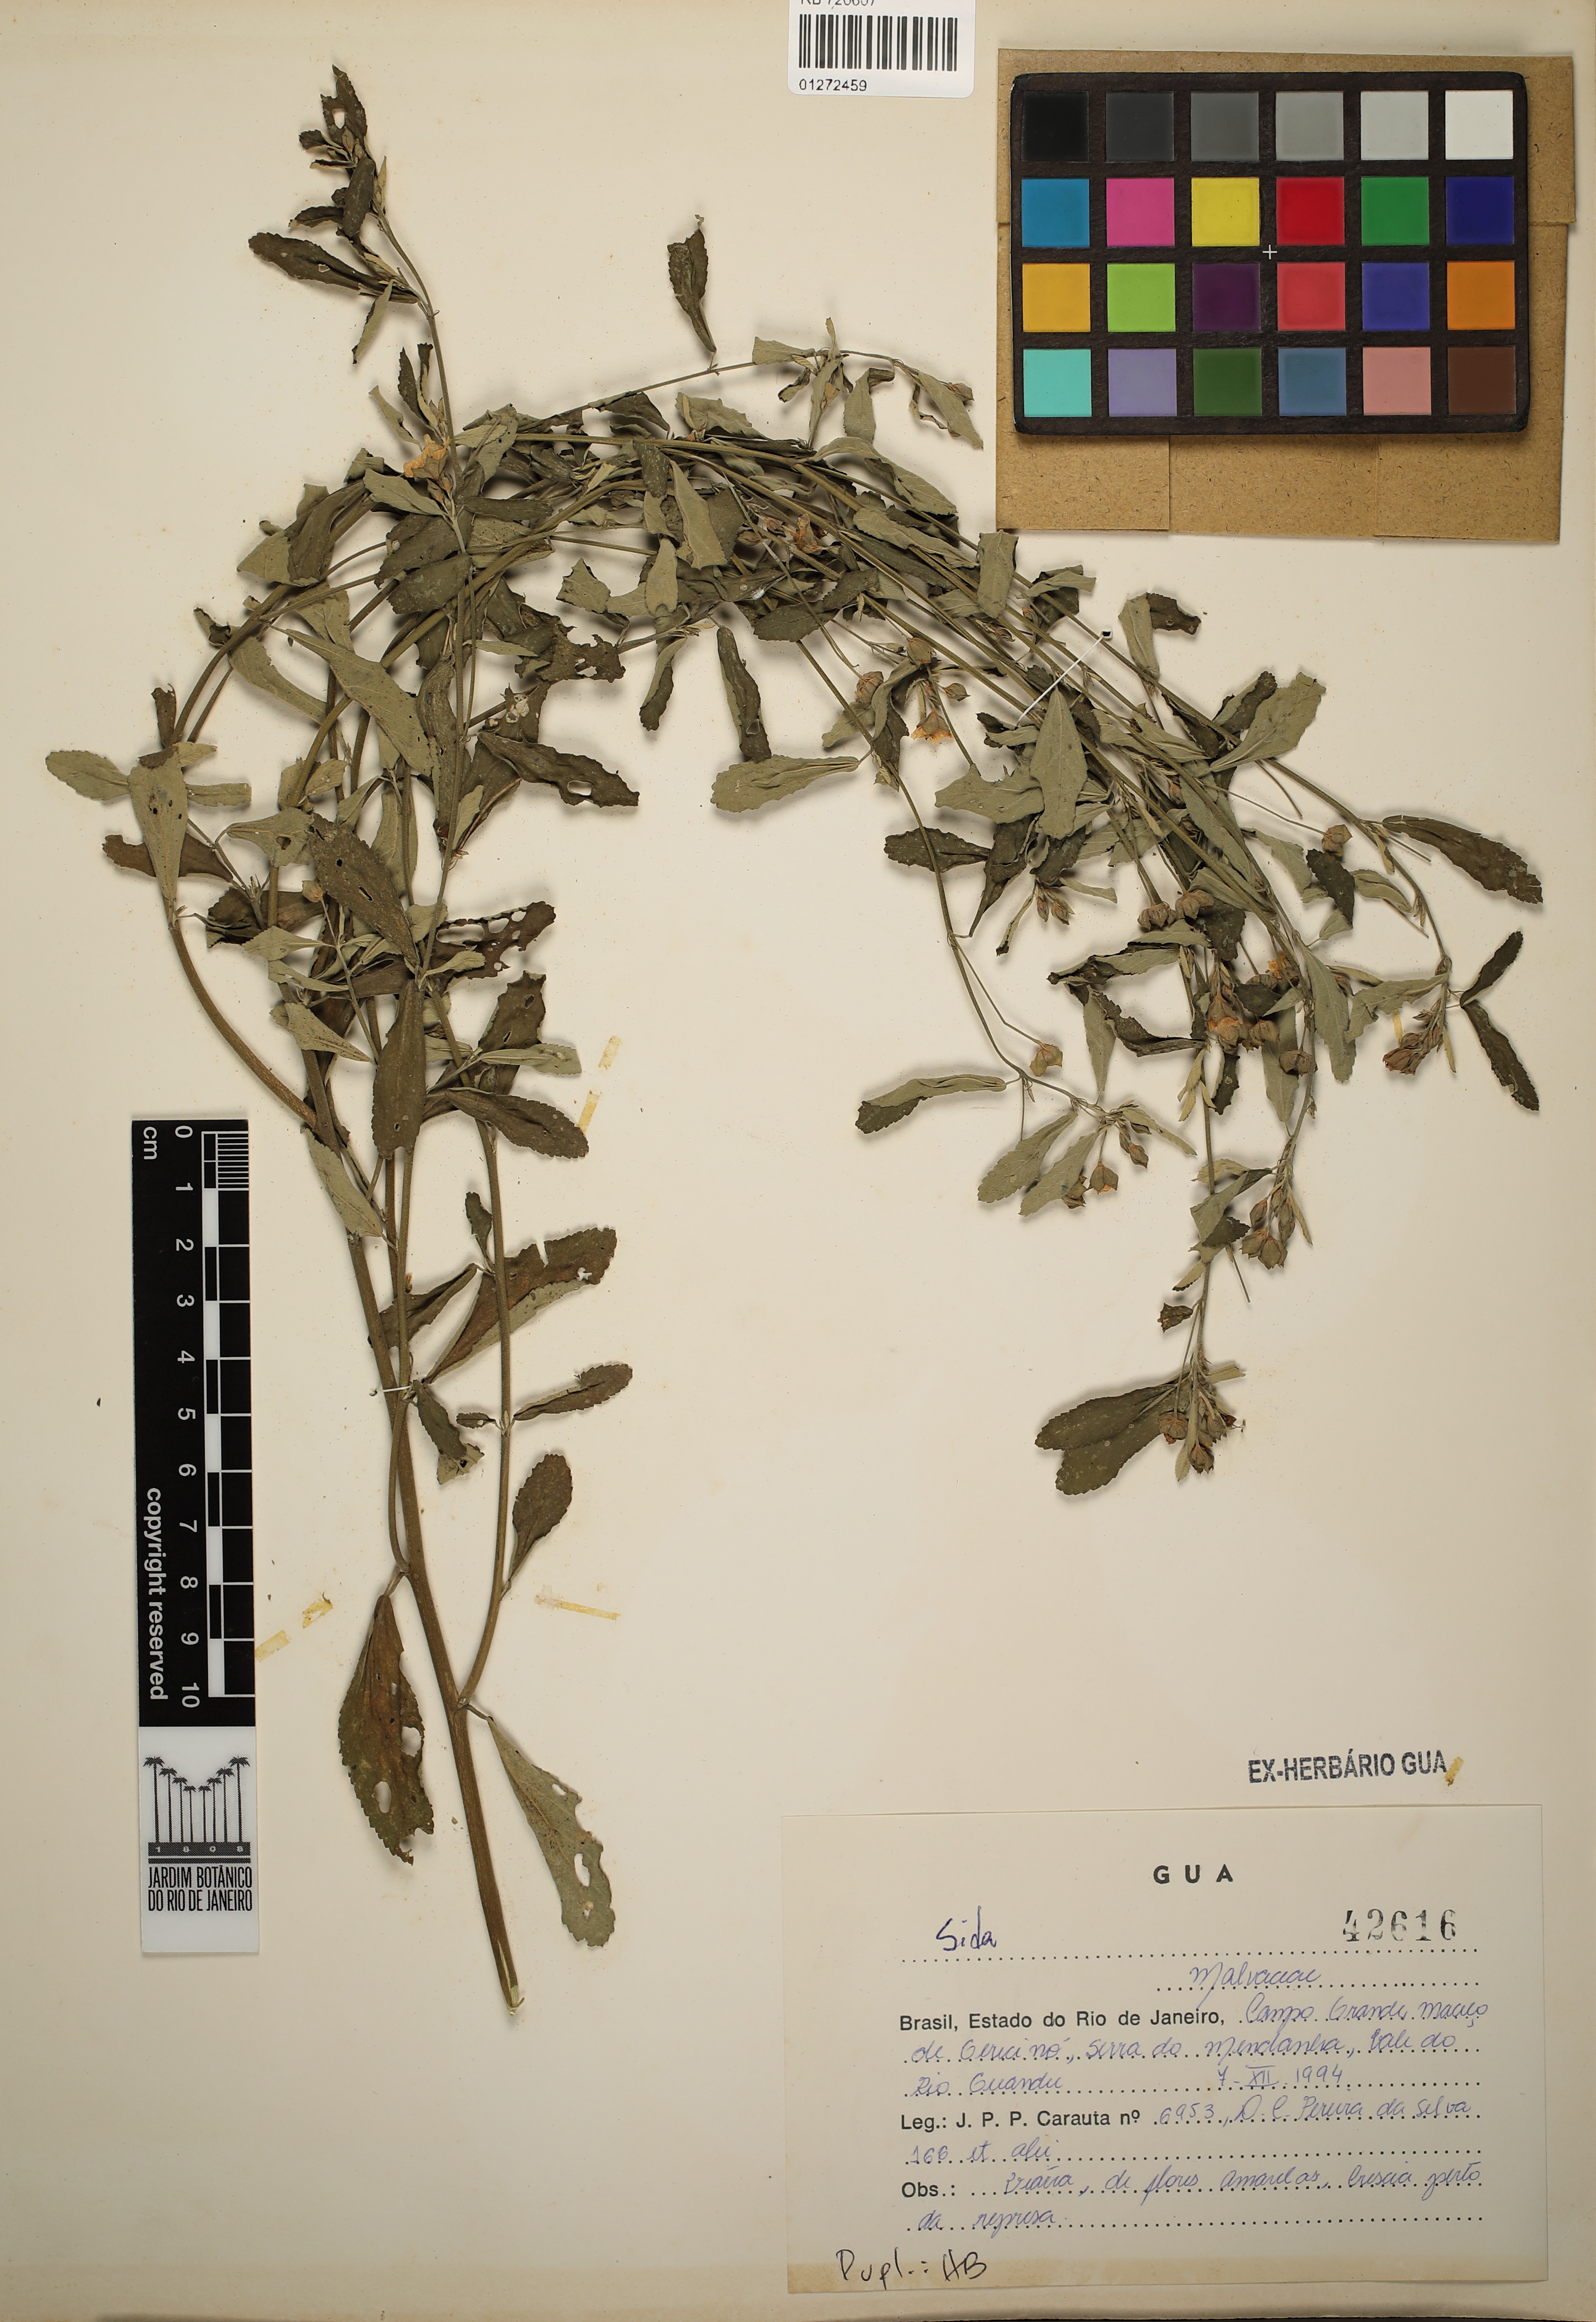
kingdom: Plantae
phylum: Tracheophyta
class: Magnoliopsida
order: Malvales
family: Malvaceae
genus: Sida
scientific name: Sida
